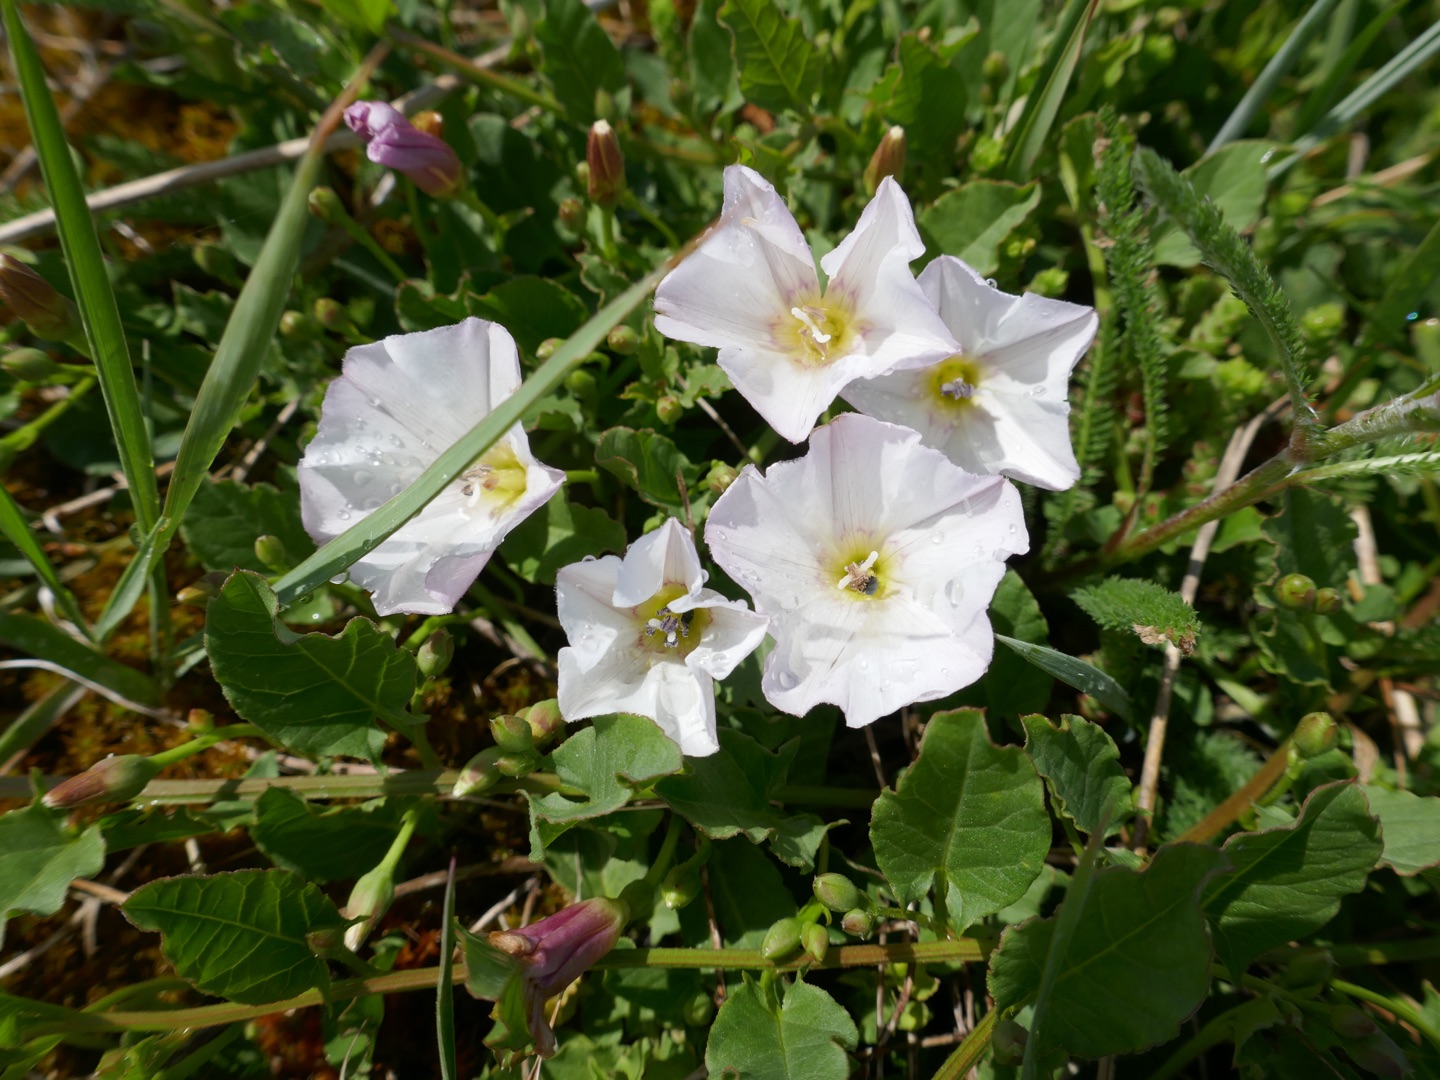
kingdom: Plantae
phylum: Tracheophyta
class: Magnoliopsida
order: Solanales
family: Convolvulaceae
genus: Convolvulus
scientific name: Convolvulus arvensis
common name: Ager-snerle
